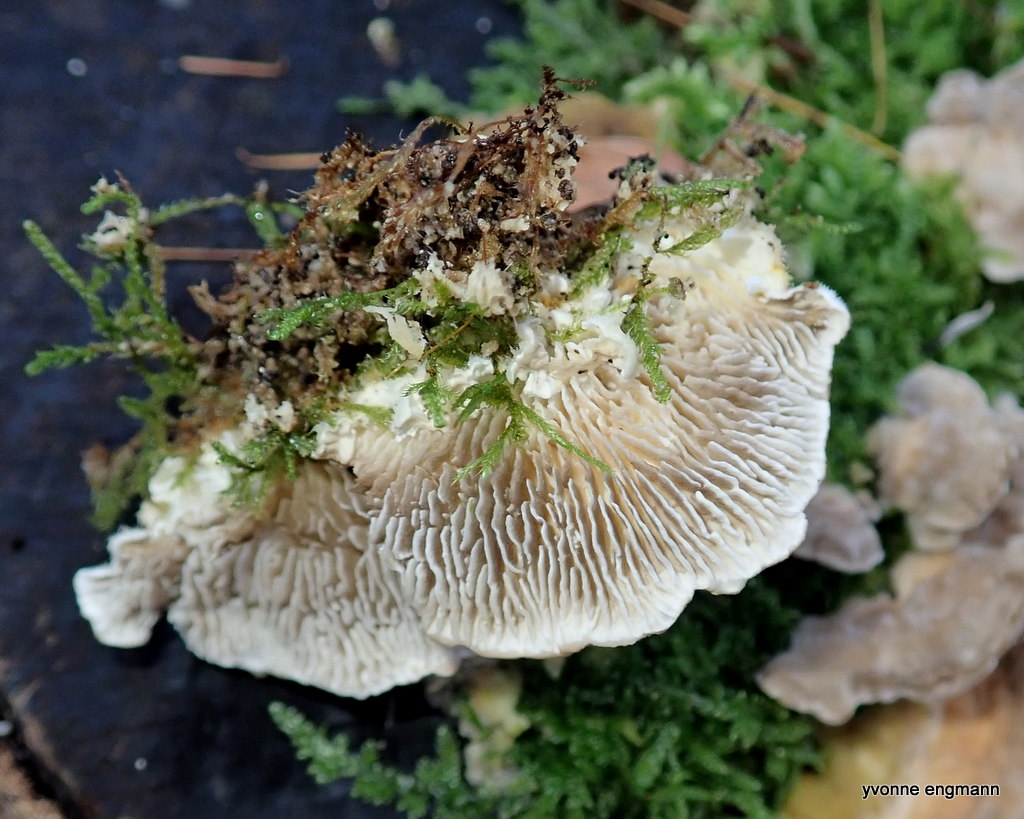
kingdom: Fungi
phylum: Basidiomycota
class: Agaricomycetes
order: Polyporales
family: Polyporaceae
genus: Lenzites
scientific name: Lenzites betulinus
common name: birke-læderporesvamp
